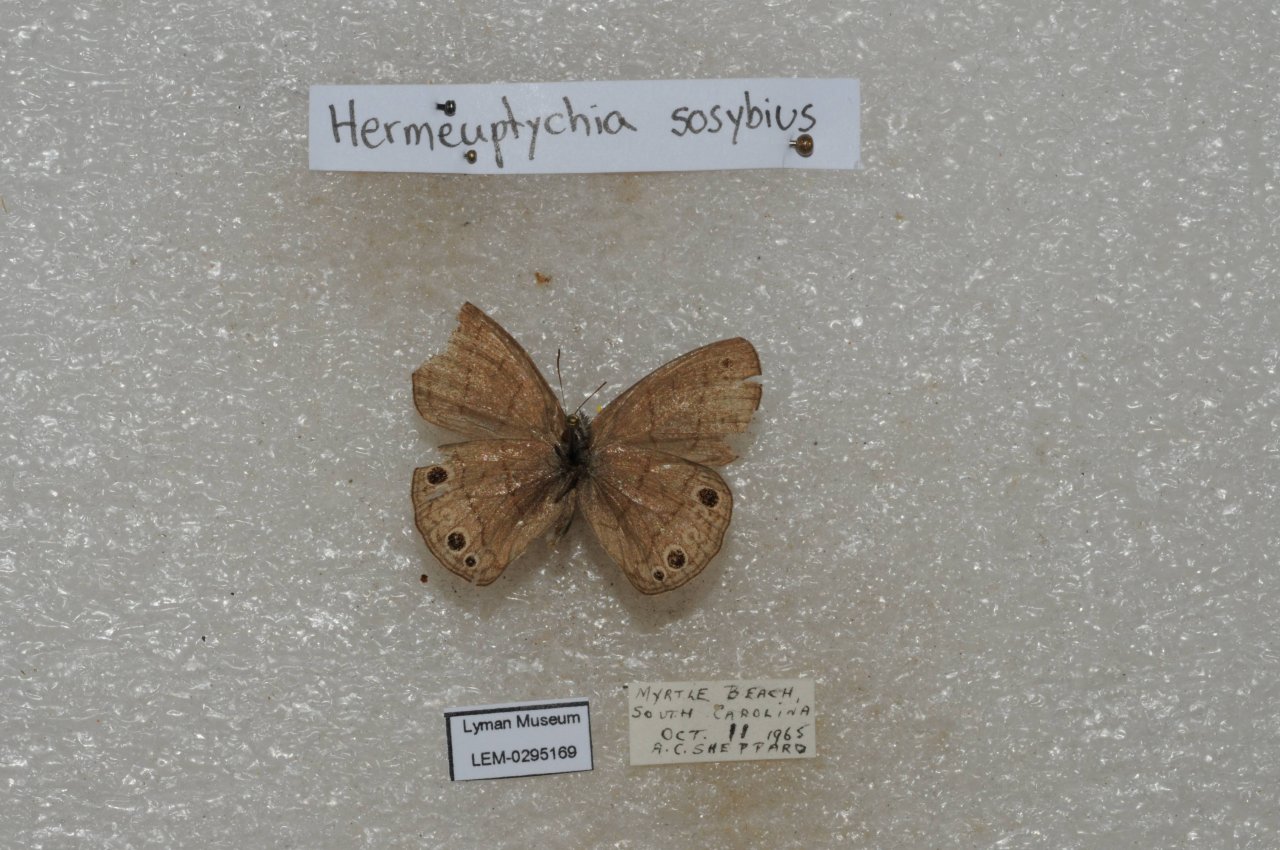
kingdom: Animalia
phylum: Arthropoda
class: Insecta
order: Lepidoptera
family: Nymphalidae
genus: Hermeuptychia
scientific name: Hermeuptychia hermes
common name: Carolina Satyr
